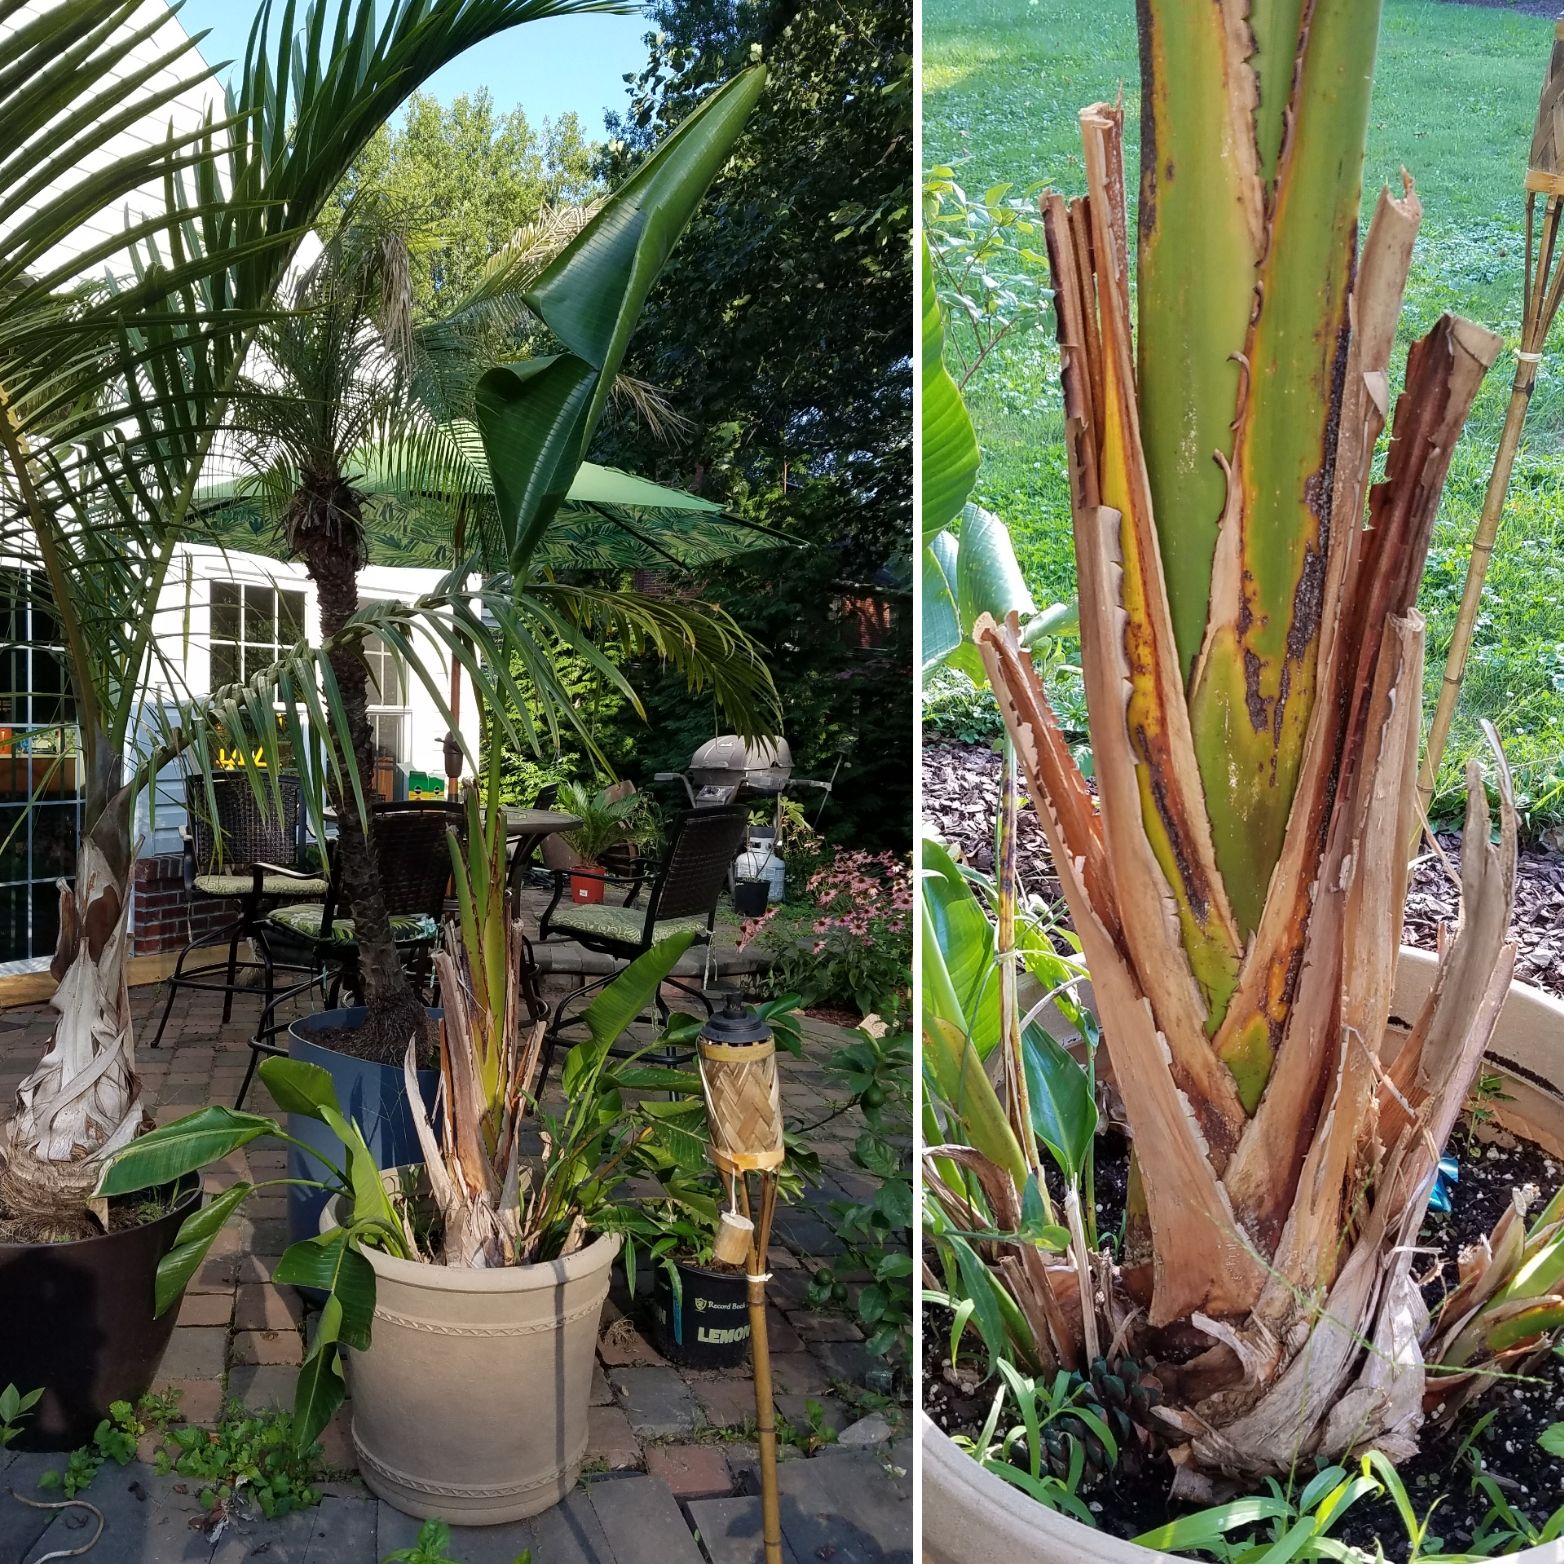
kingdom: Plantae
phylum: Tracheophyta
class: Liliopsida
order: Zingiberales
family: Strelitziaceae
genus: Strelitzia
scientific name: Strelitzia nicolai
